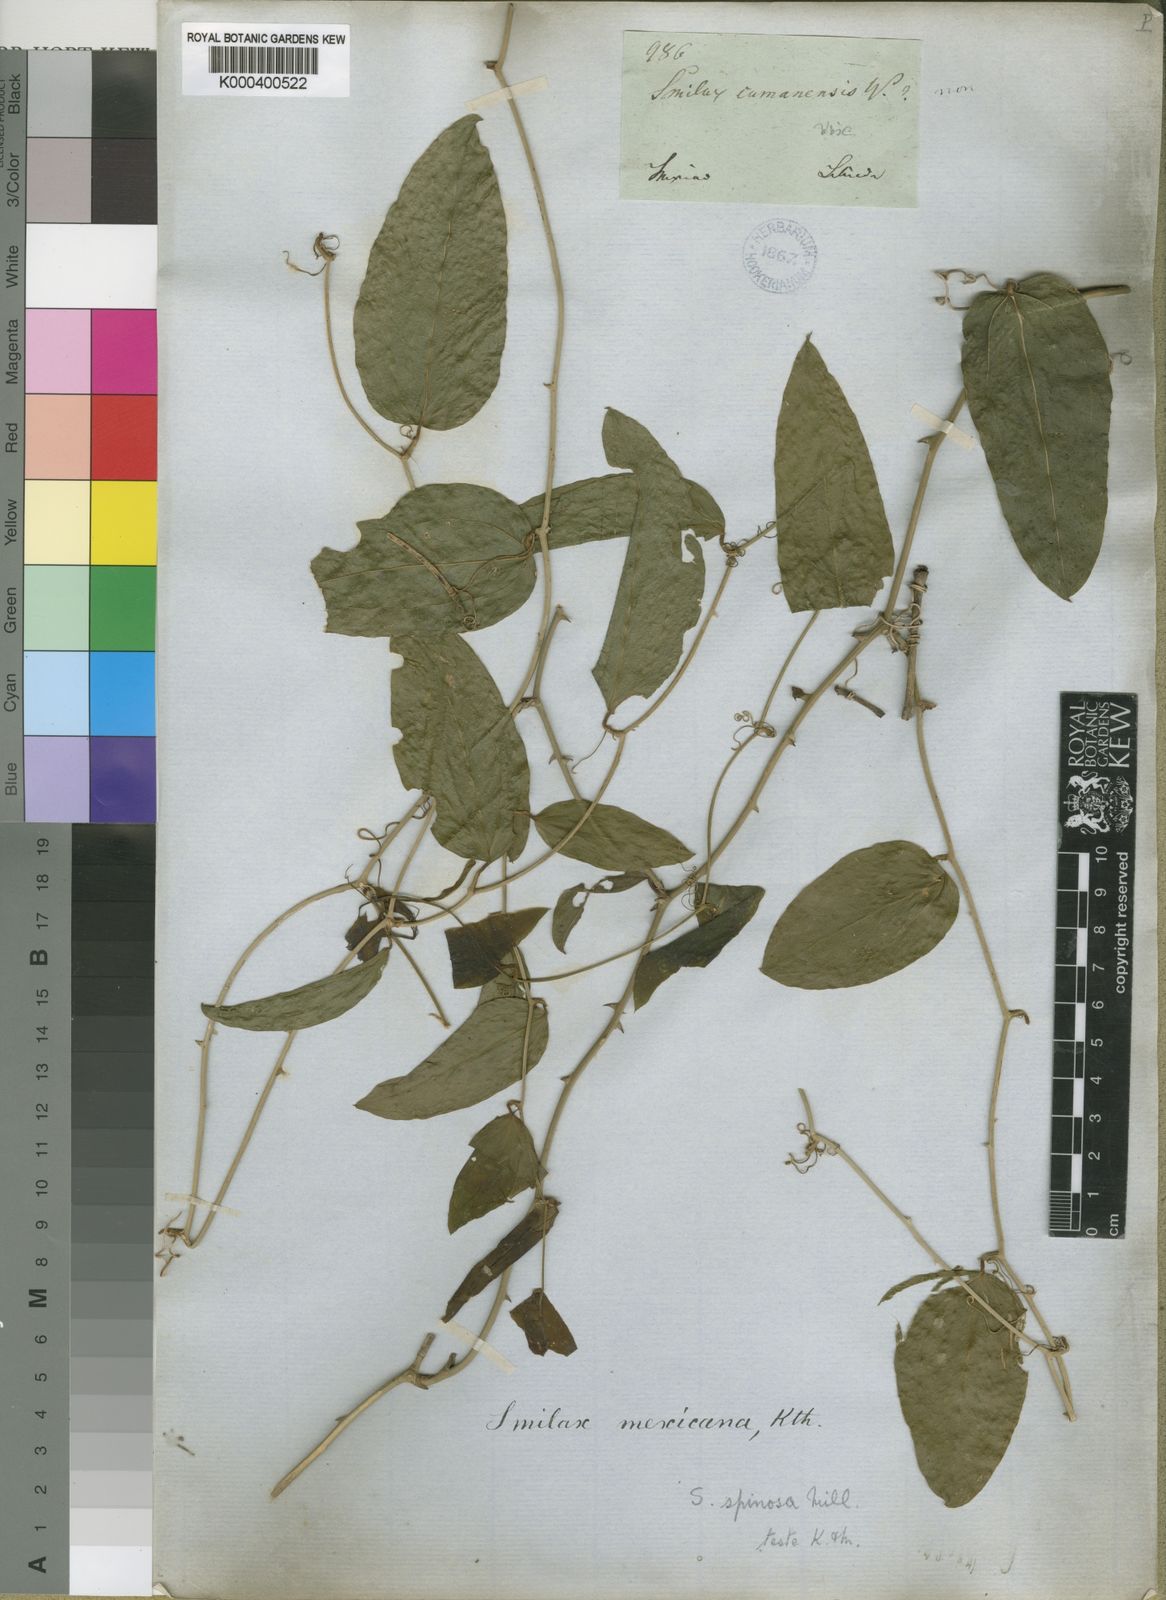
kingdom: Plantae
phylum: Tracheophyta
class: Liliopsida
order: Liliales
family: Smilacaceae
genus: Smilax
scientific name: Smilax spinosa
